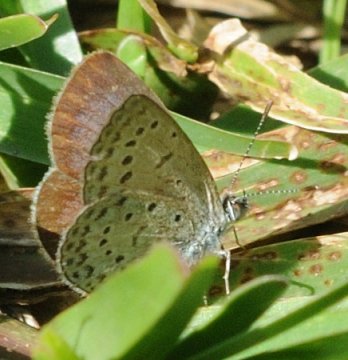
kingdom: Animalia
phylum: Arthropoda
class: Insecta
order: Lepidoptera
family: Lycaenidae
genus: Zizeeria
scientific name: Zizeeria knysna
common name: Dark Grass Blue
